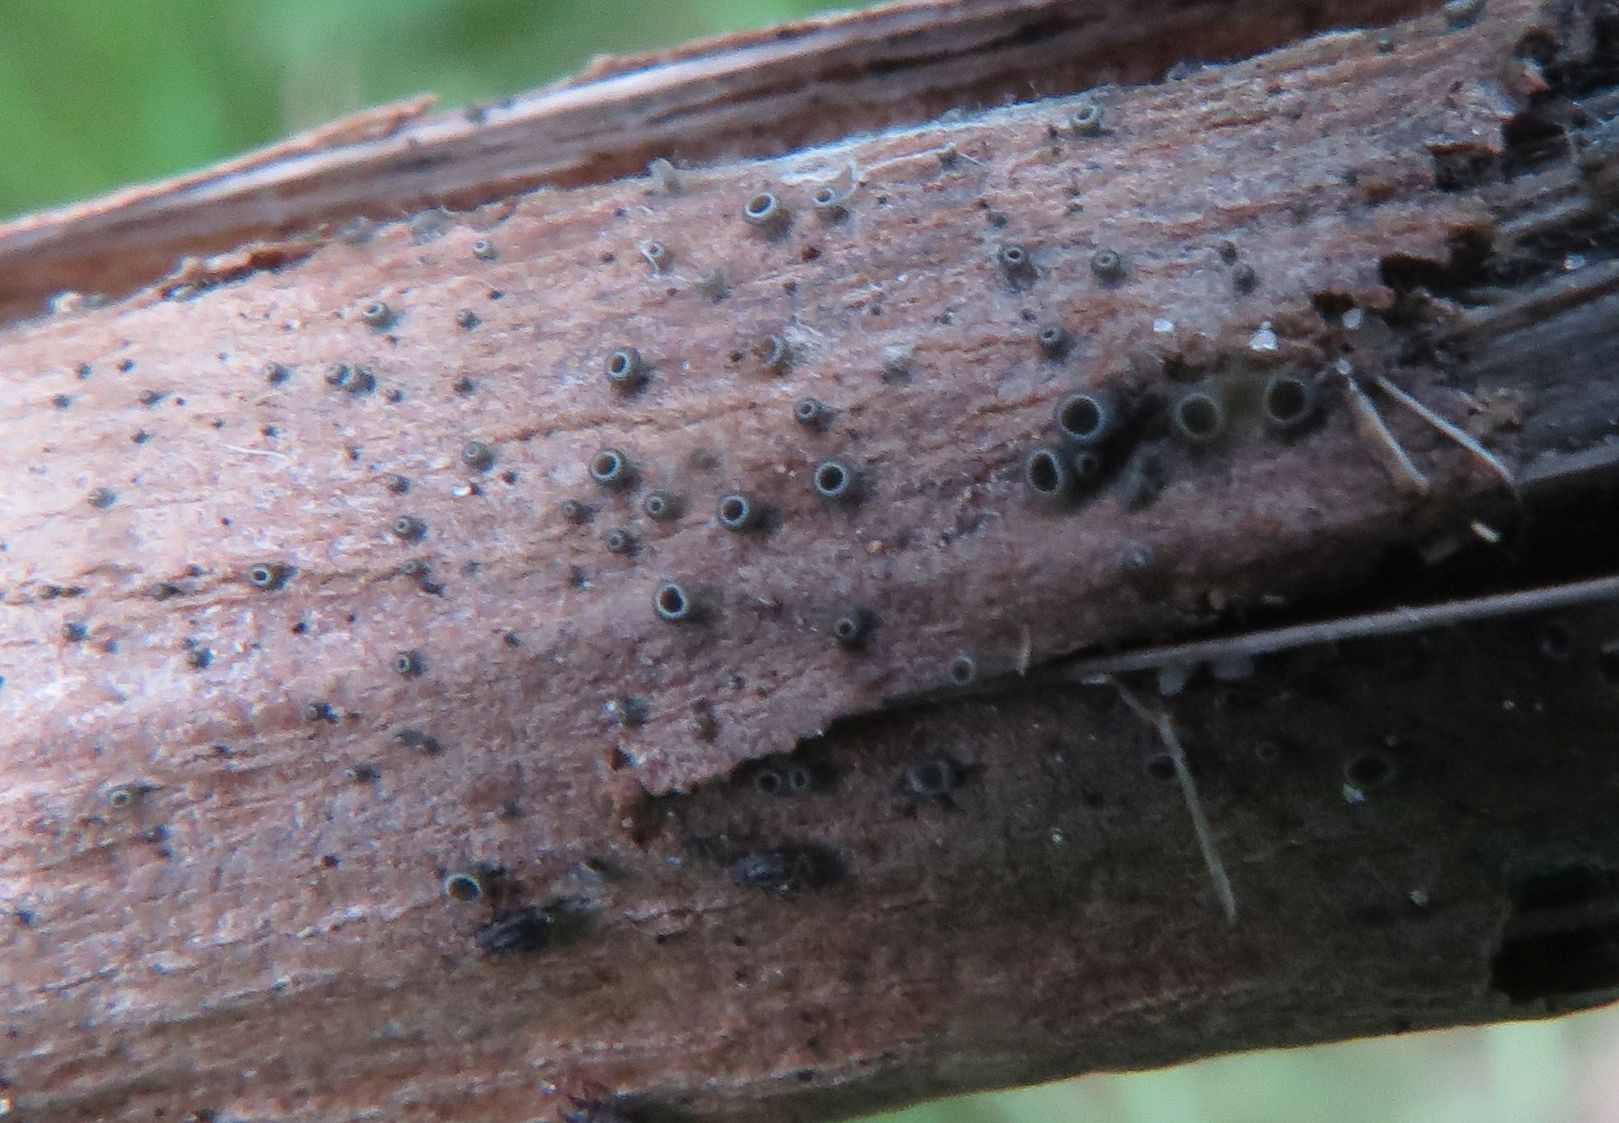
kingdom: Fungi
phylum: Ascomycota
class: Leotiomycetes
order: Helotiales
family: Mollisiaceae
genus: Mollisia
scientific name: Mollisia clavata
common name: dueurt-gråskive
